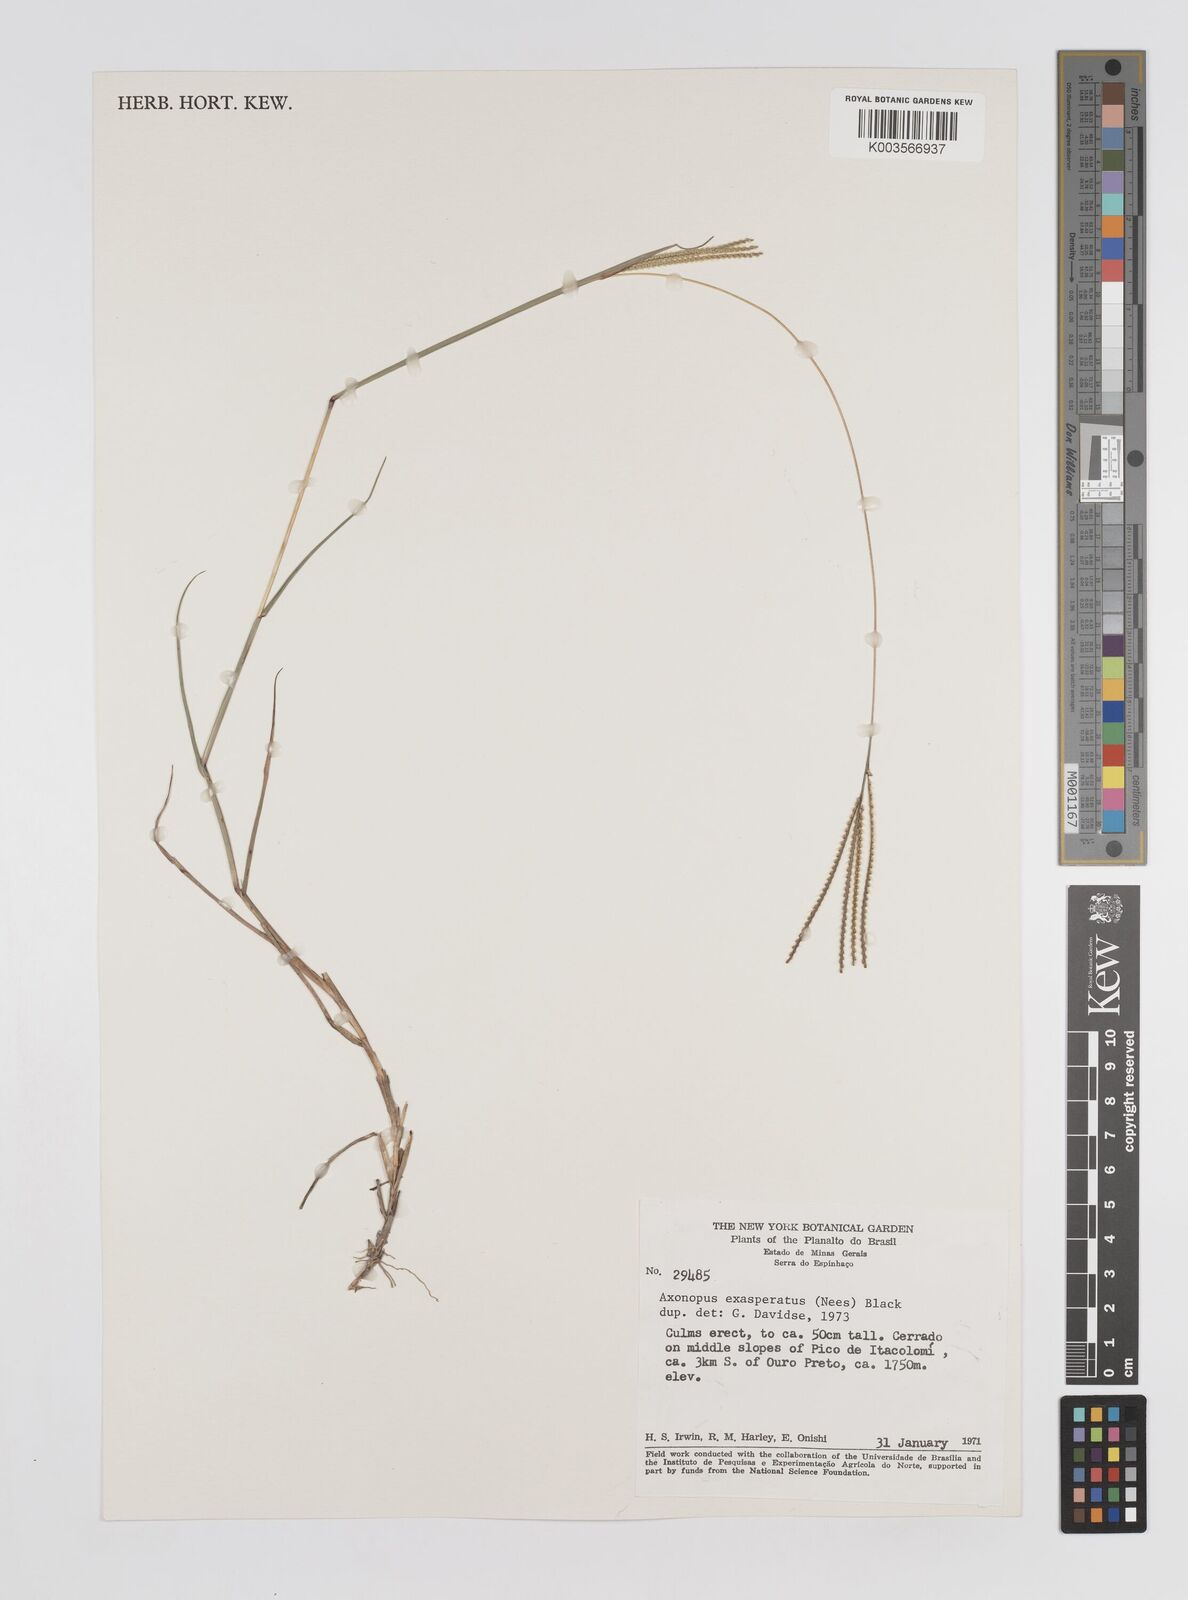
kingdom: Plantae
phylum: Tracheophyta
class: Liliopsida
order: Poales
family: Poaceae
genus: Axonopus
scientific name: Axonopus aureus
